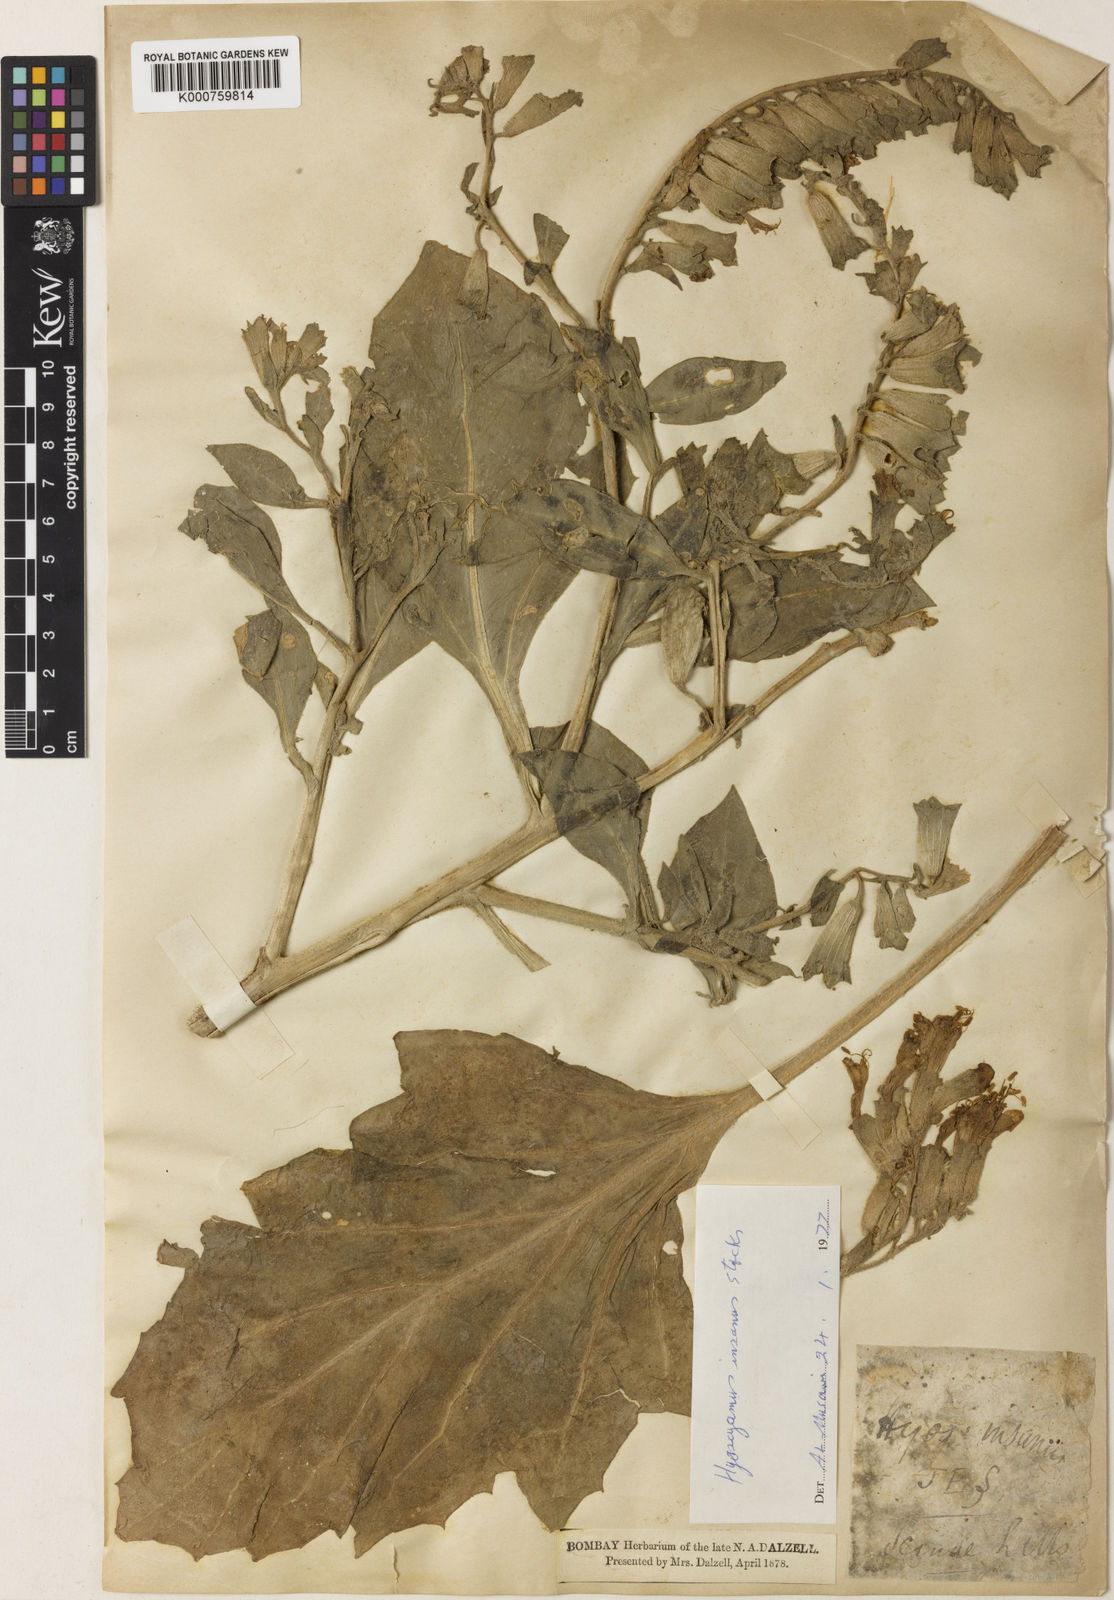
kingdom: Plantae
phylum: Tracheophyta
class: Magnoliopsida
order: Solanales
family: Solanaceae
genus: Hyoscyamus
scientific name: Hyoscyamus insanus
